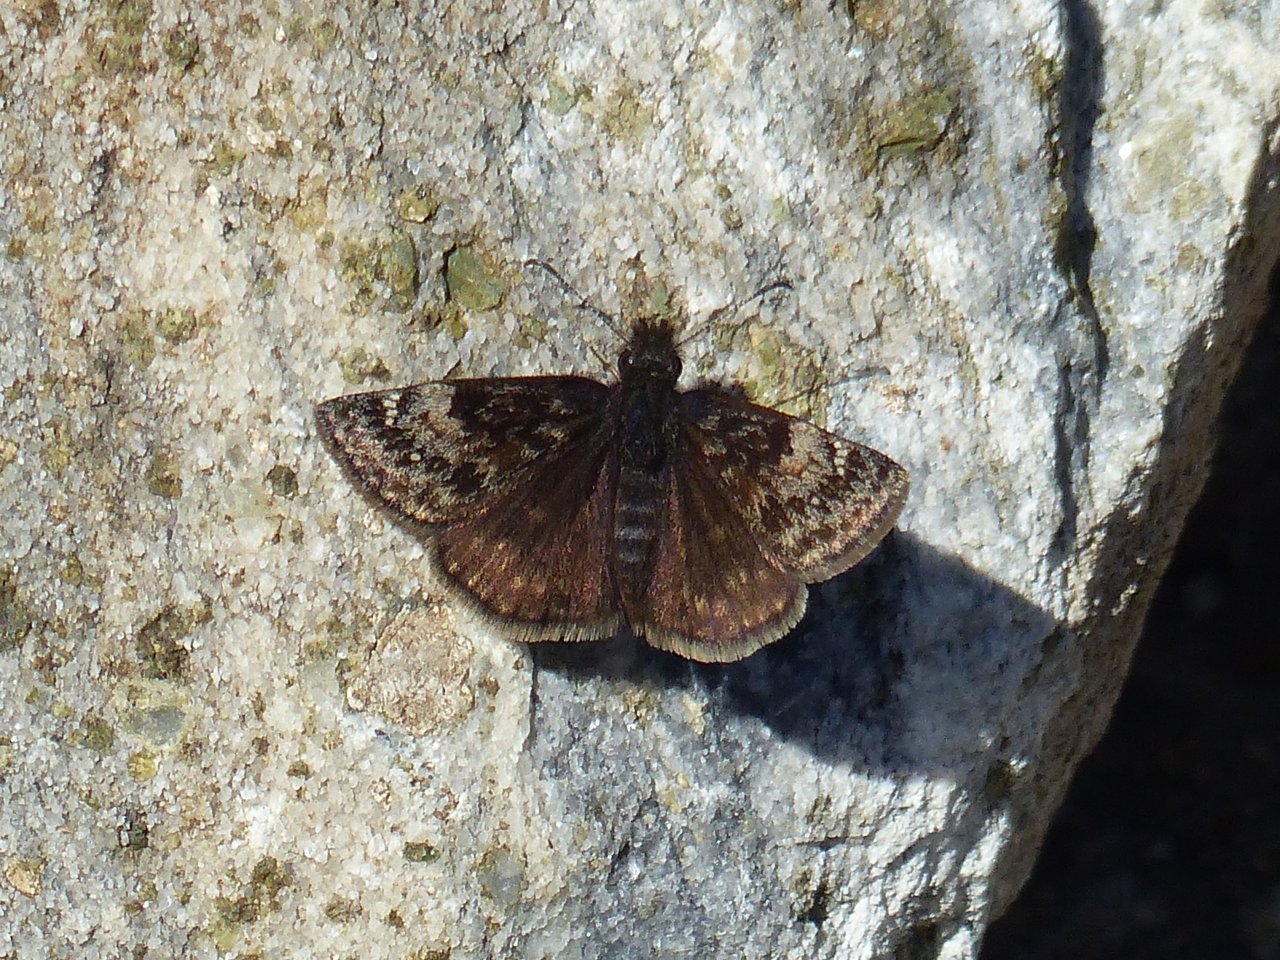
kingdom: Animalia
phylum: Arthropoda
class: Insecta
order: Lepidoptera
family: Hesperiidae
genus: Gesta
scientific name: Gesta
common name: Columbine Duskywing
